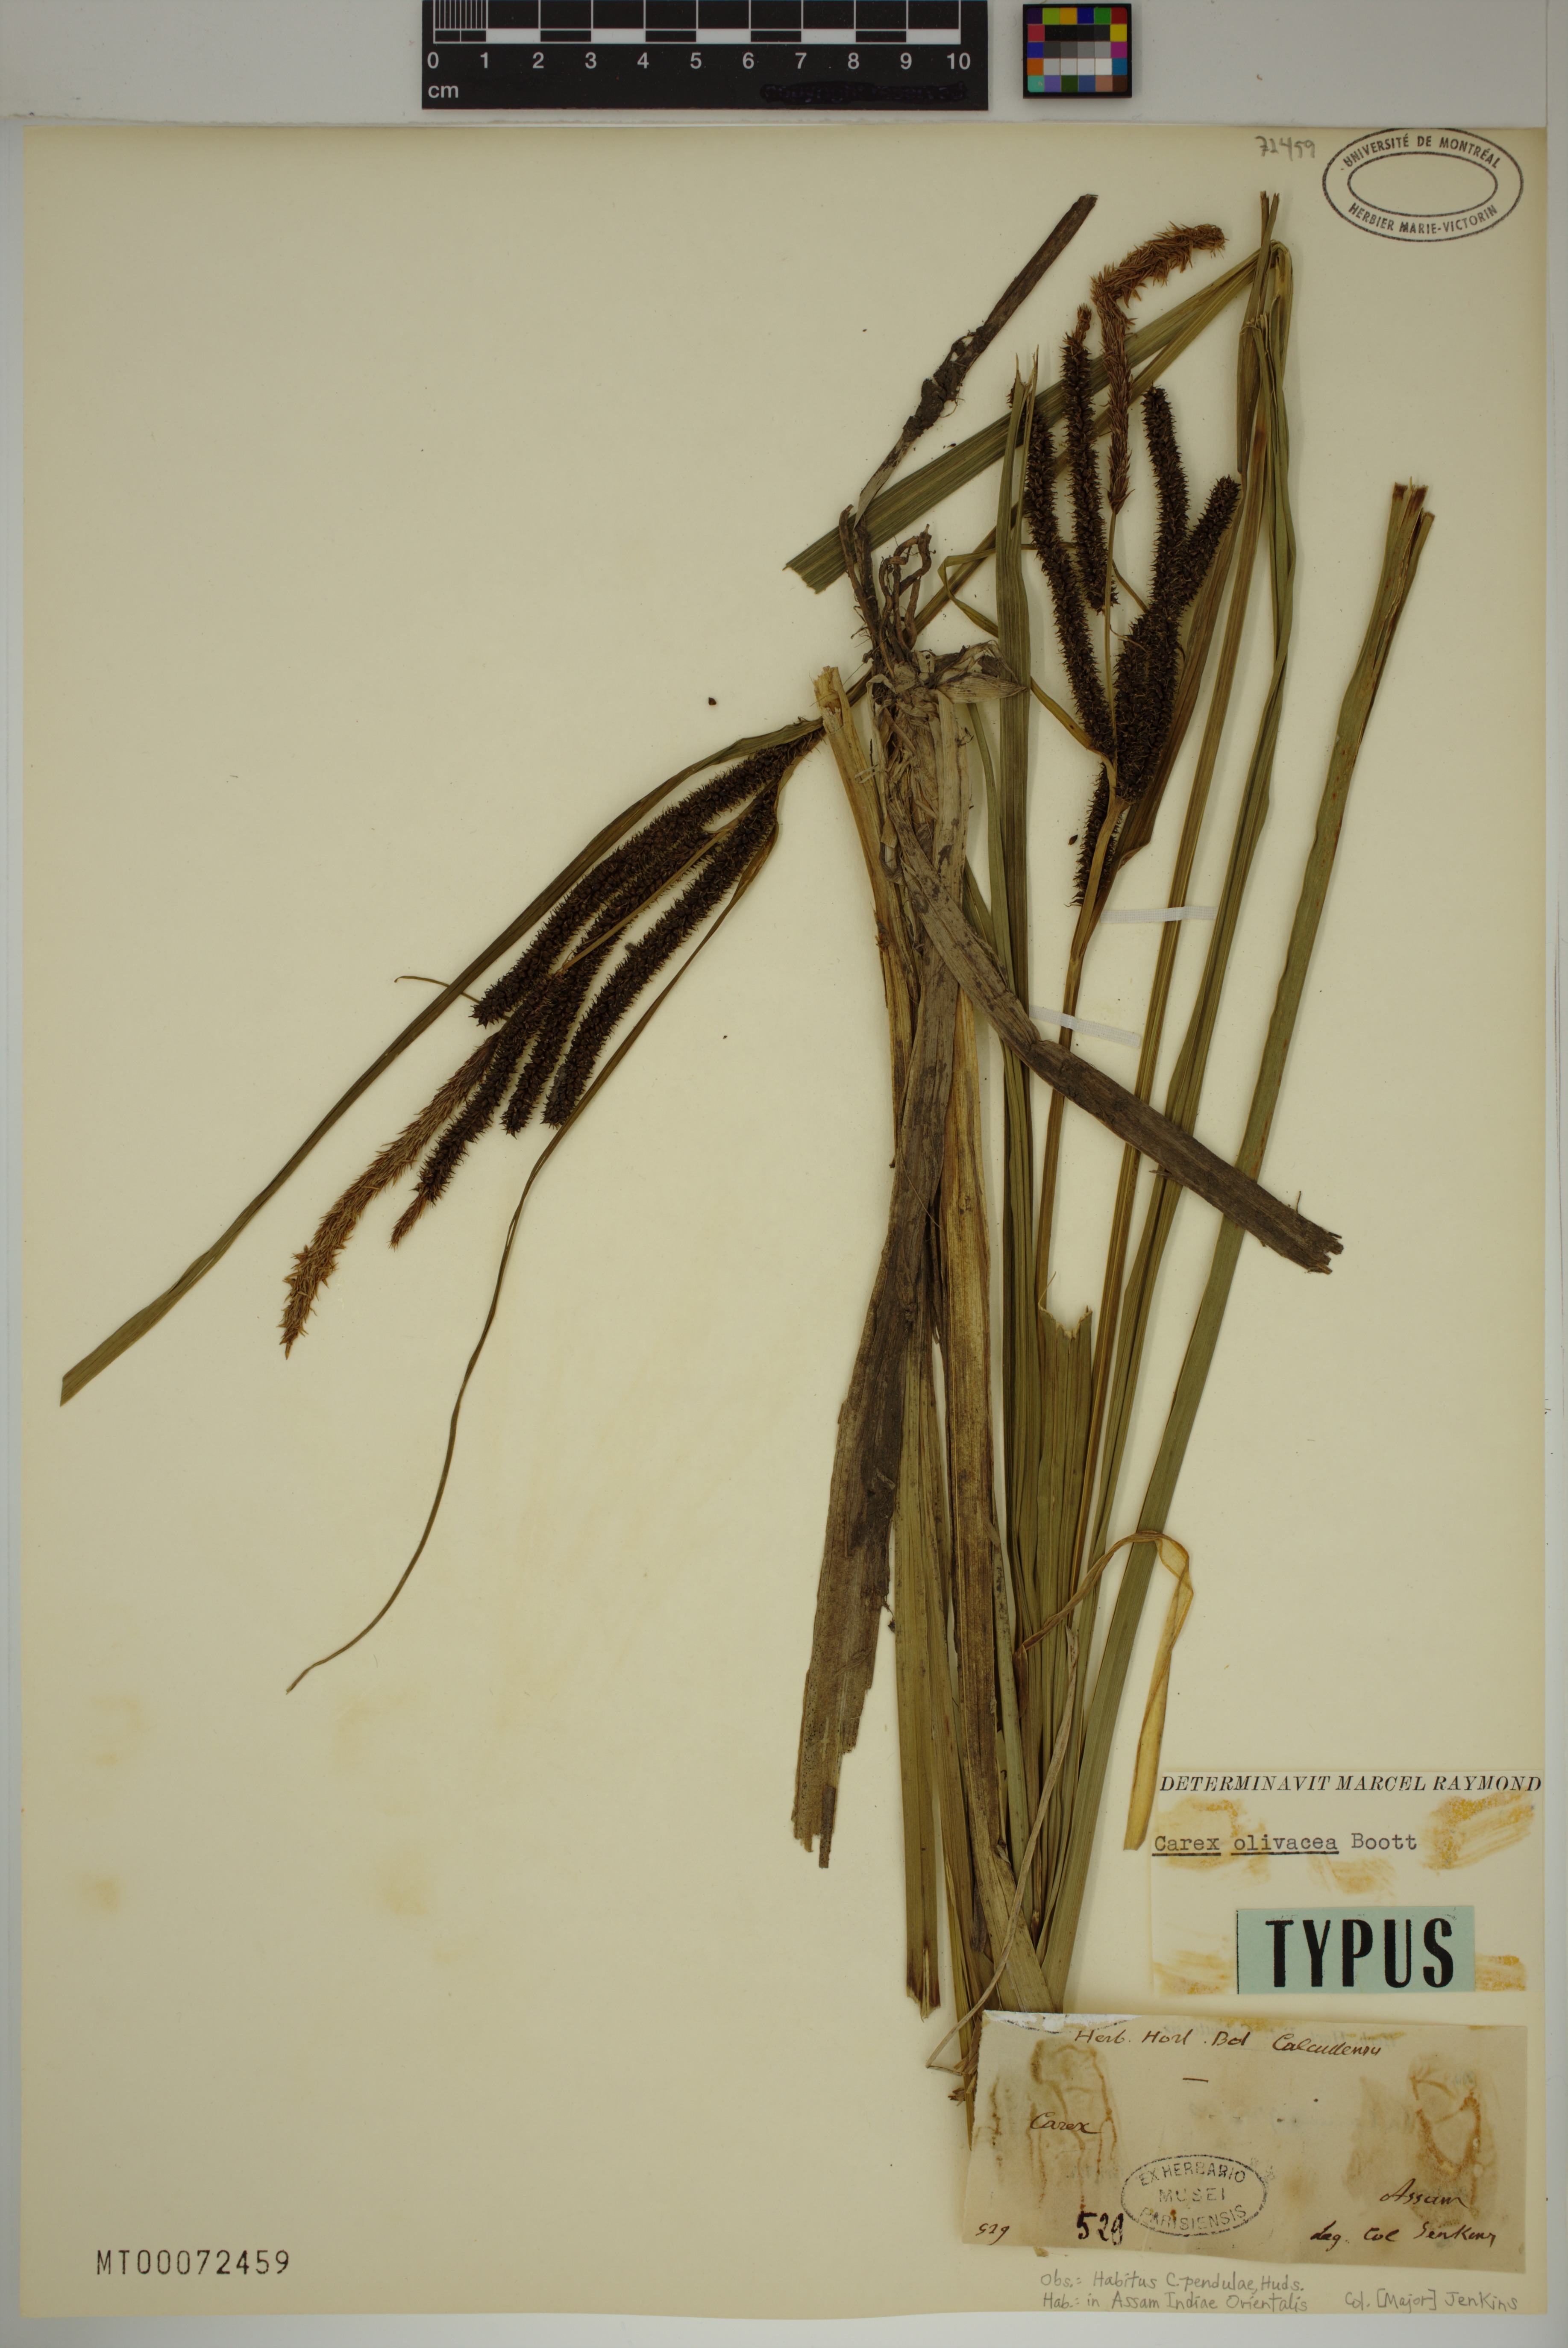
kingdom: Plantae
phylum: Tracheophyta
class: Liliopsida
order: Poales
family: Cyperaceae
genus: Carex
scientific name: Carex olivacea
